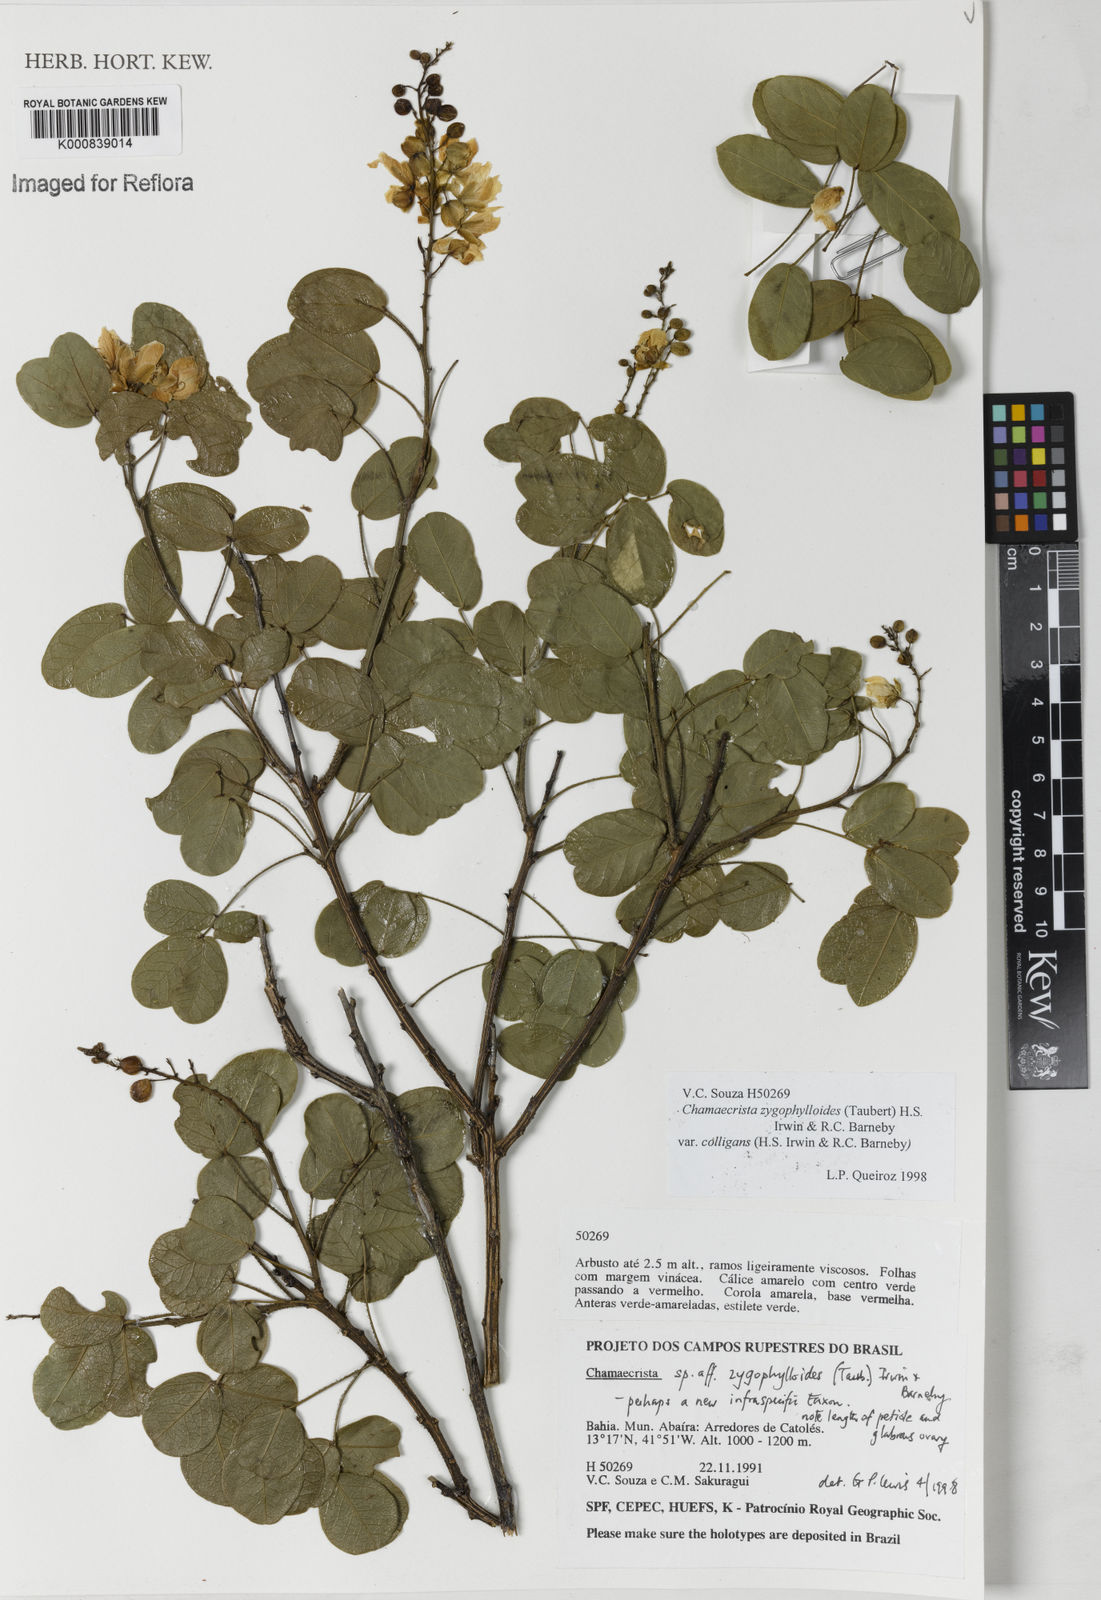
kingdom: Plantae
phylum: Tracheophyta
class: Magnoliopsida
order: Fabales
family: Fabaceae
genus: Chamaecrista
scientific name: Chamaecrista zygophylloides
